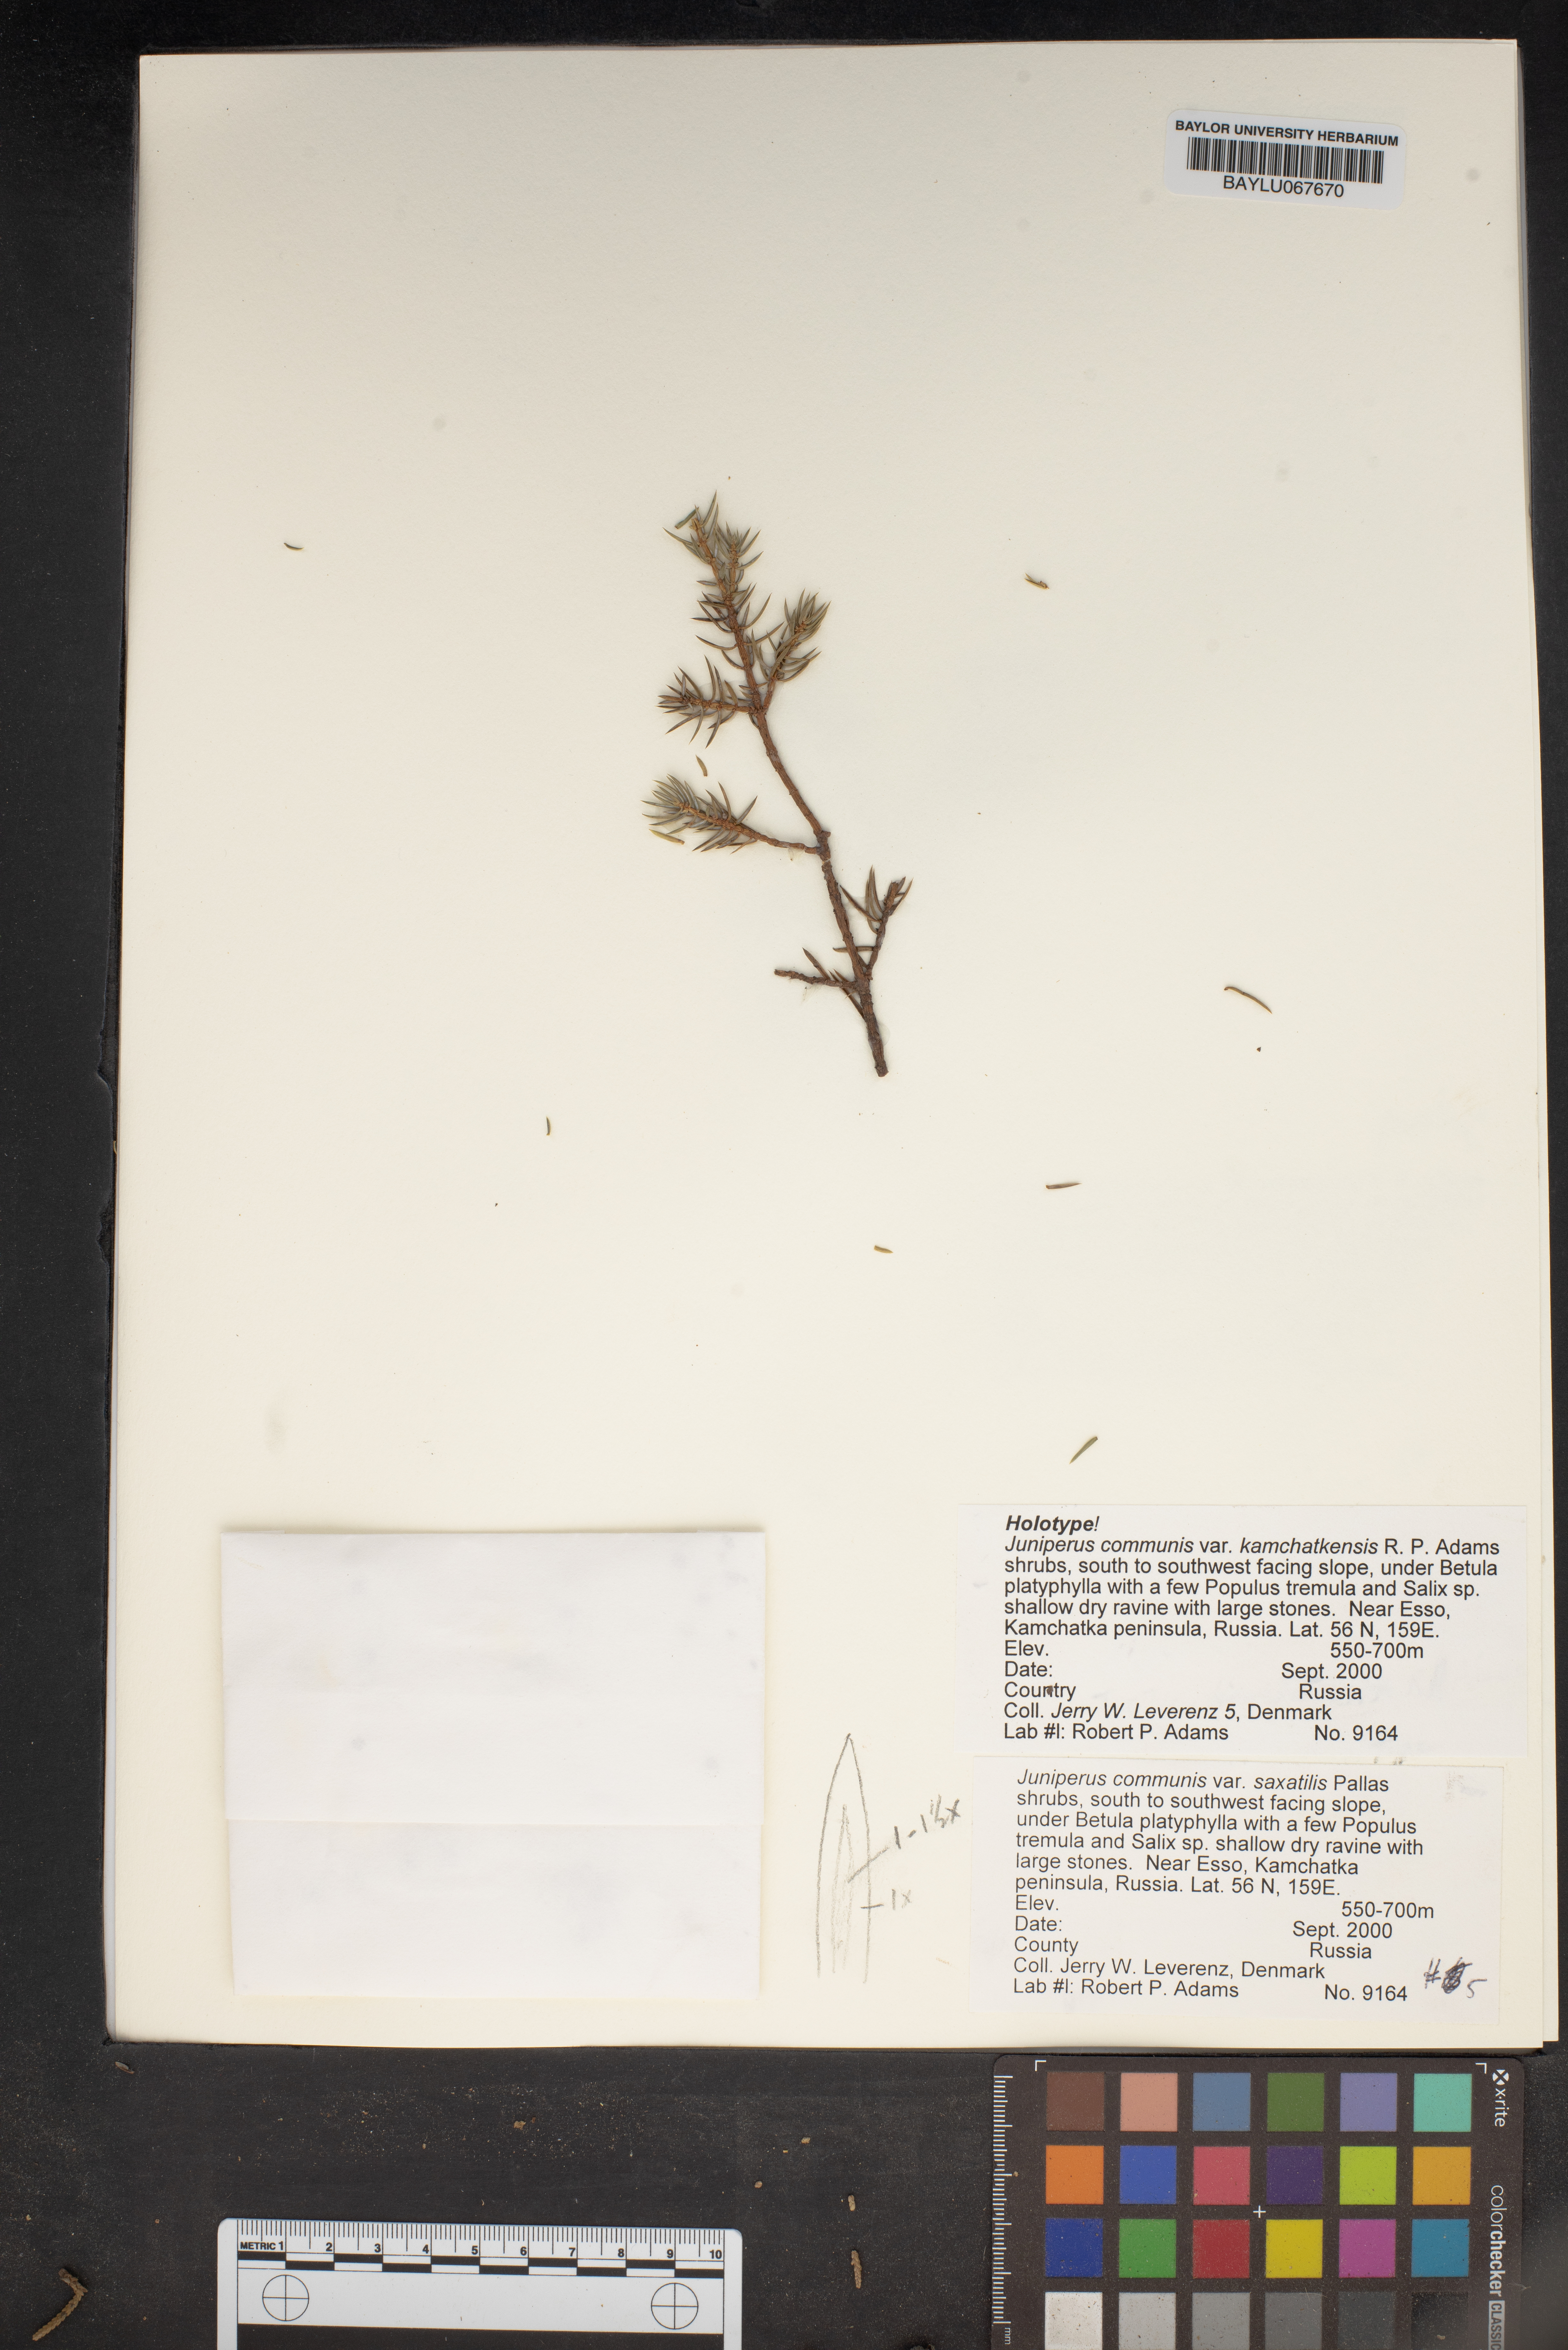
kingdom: Plantae
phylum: Tracheophyta
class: Pinopsida
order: Pinales
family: Cupressaceae
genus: Juniperus
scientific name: Juniperus communis
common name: Common juniper
